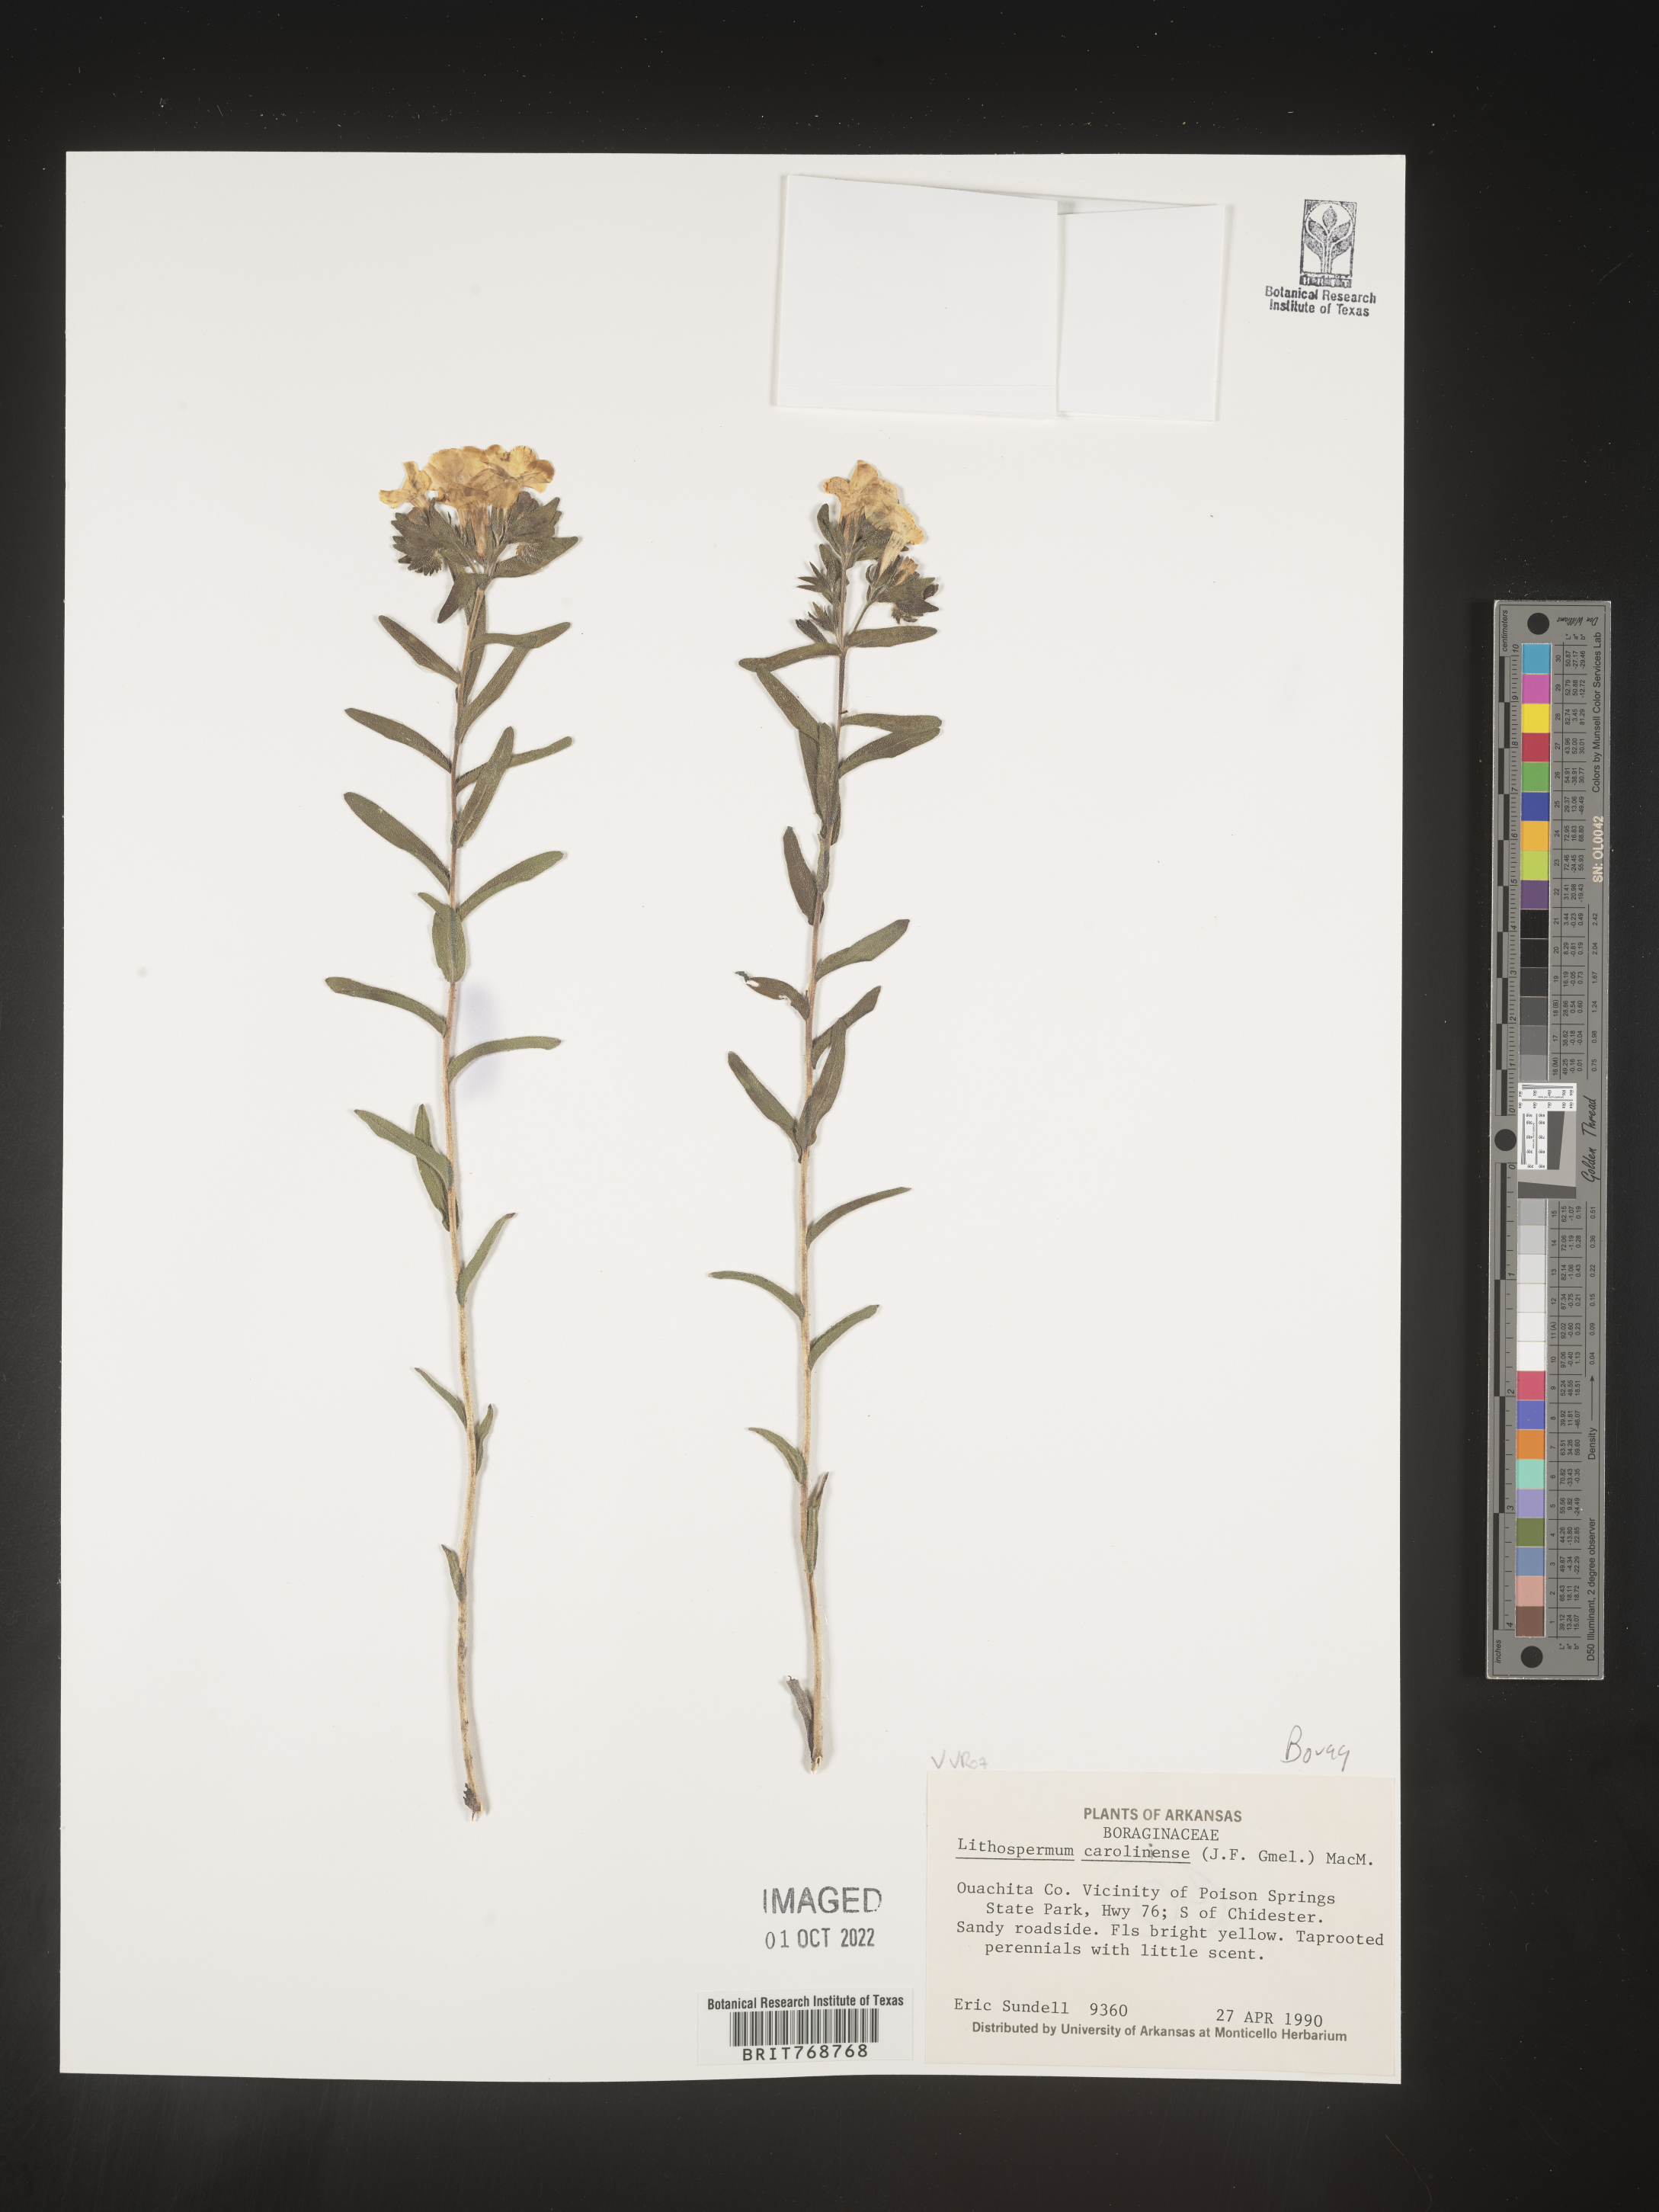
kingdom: Plantae
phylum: Tracheophyta
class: Magnoliopsida
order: Boraginales
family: Boraginaceae
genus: Lithospermum
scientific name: Lithospermum caroliniense
